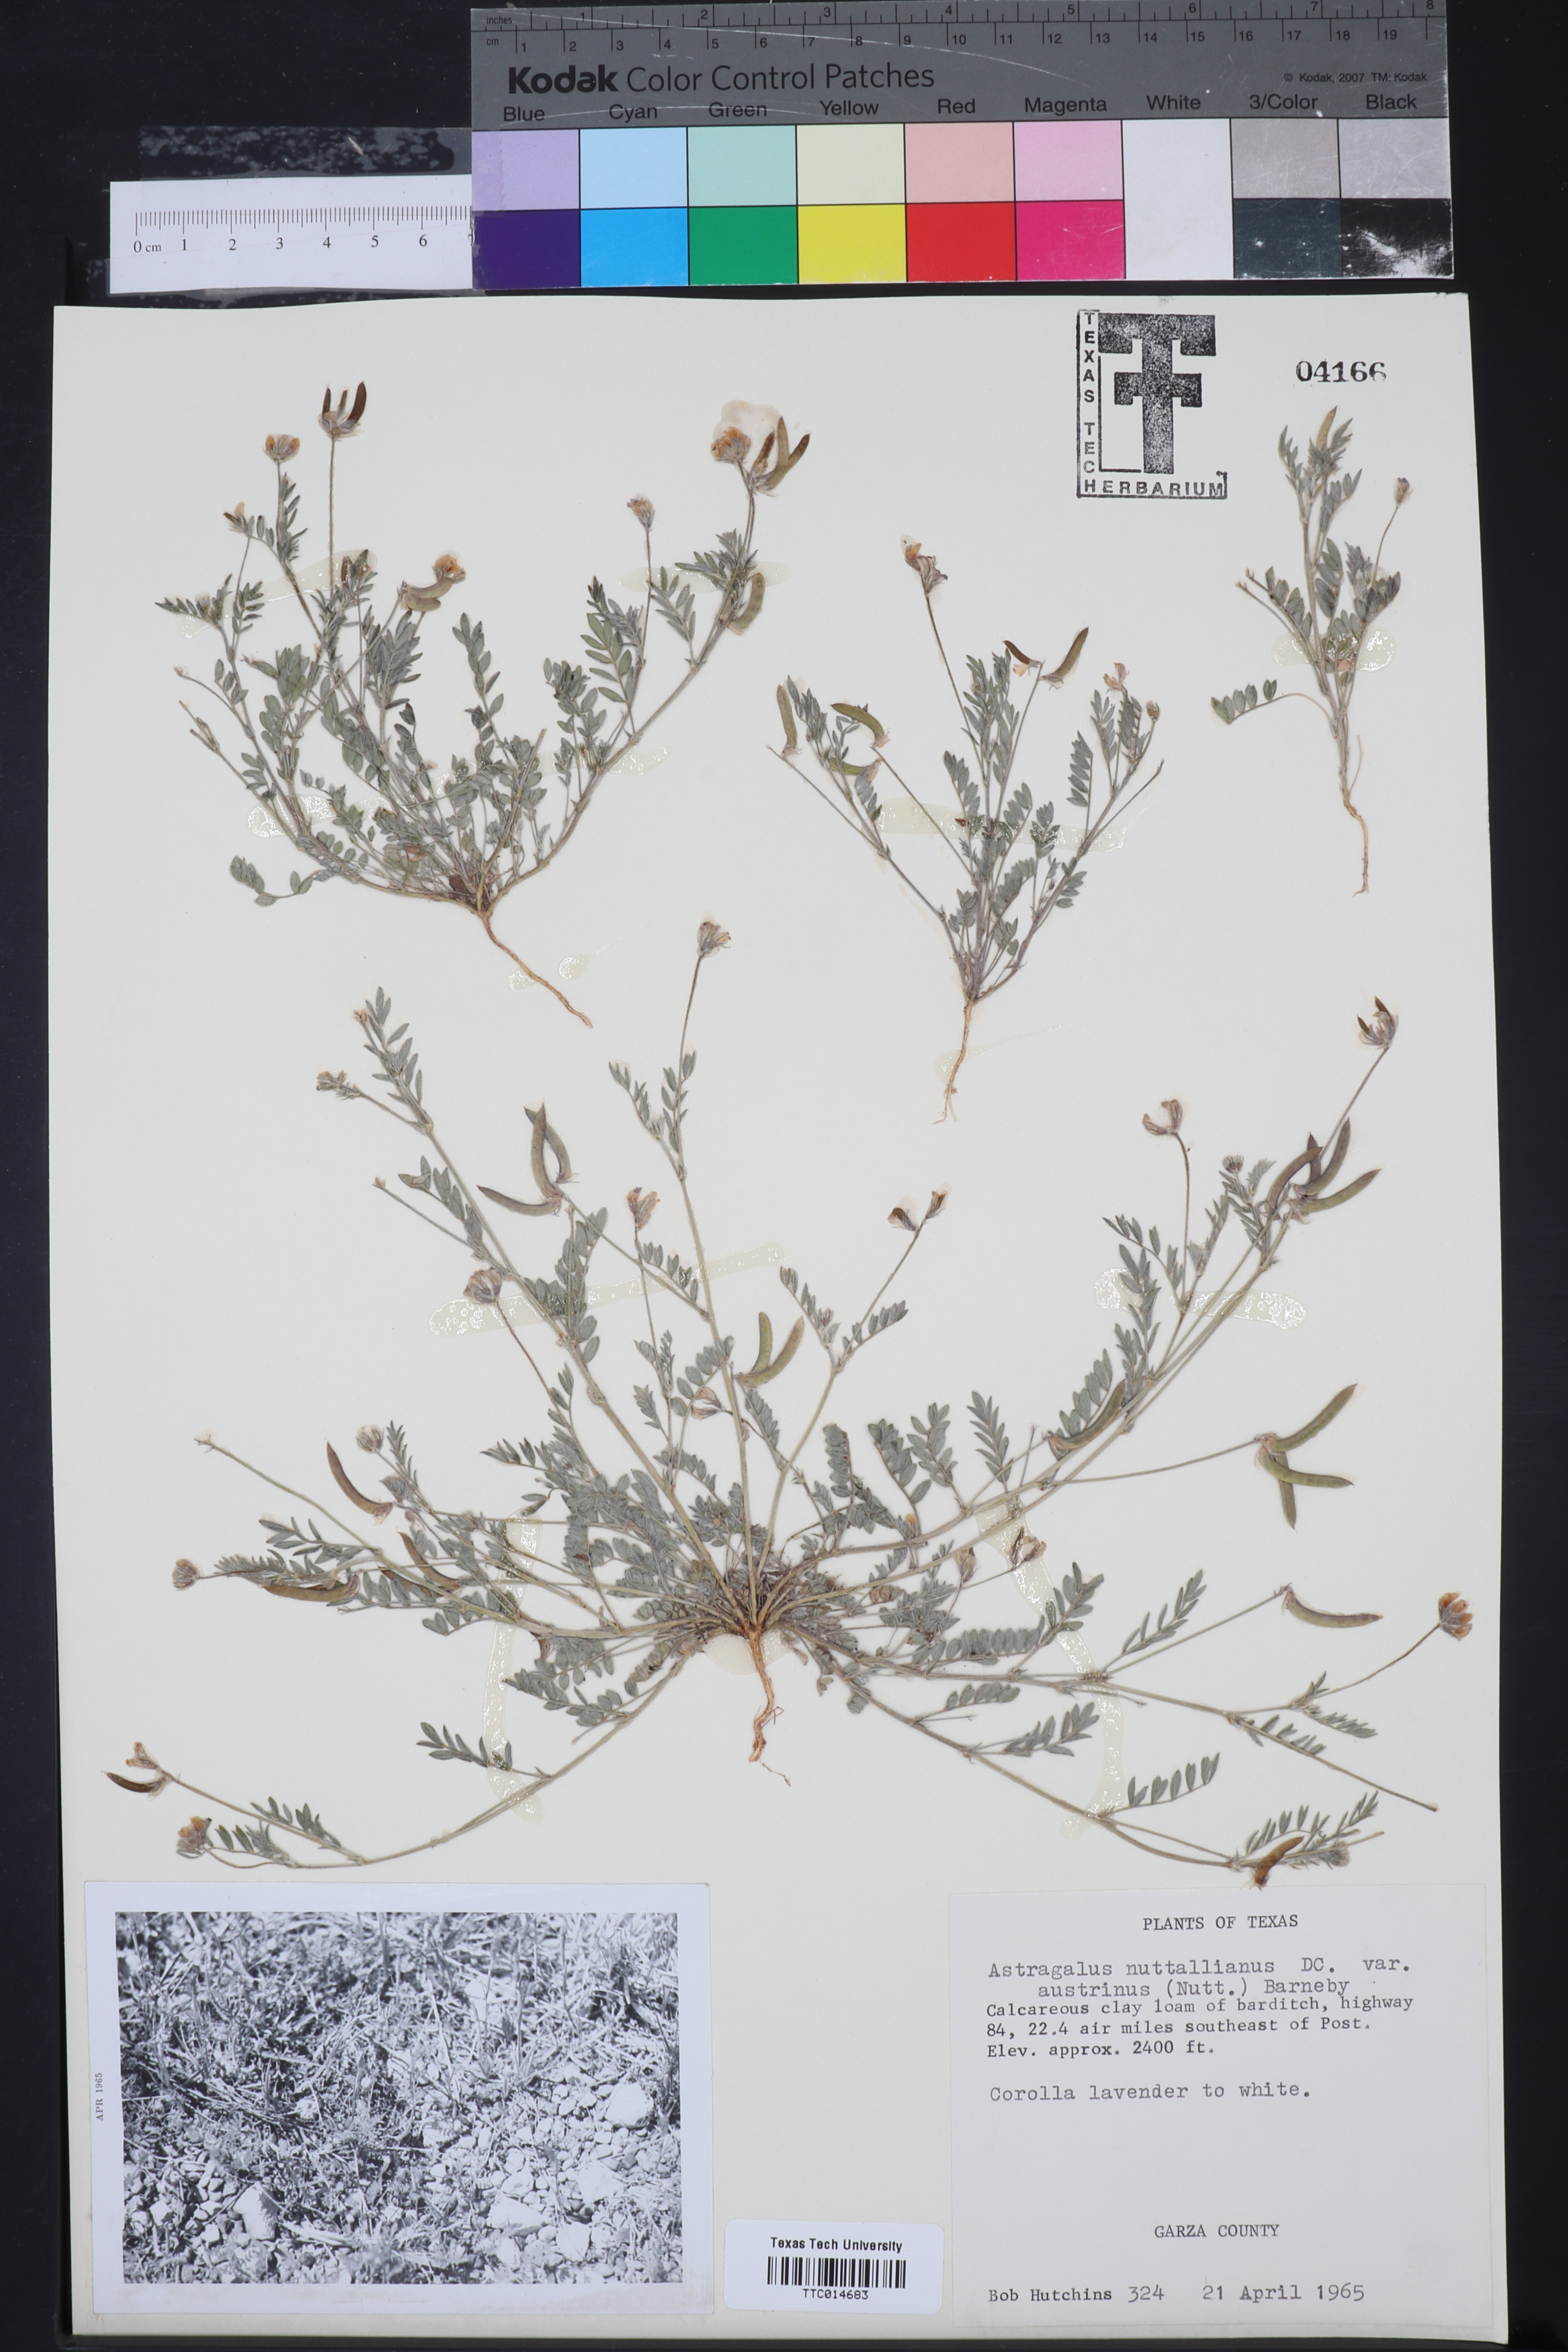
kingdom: Plantae
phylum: Tracheophyta
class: Magnoliopsida
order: Fabales
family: Fabaceae
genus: Astragalus
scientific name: Astragalus nuttallianus
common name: Smallflowered milkvetch
